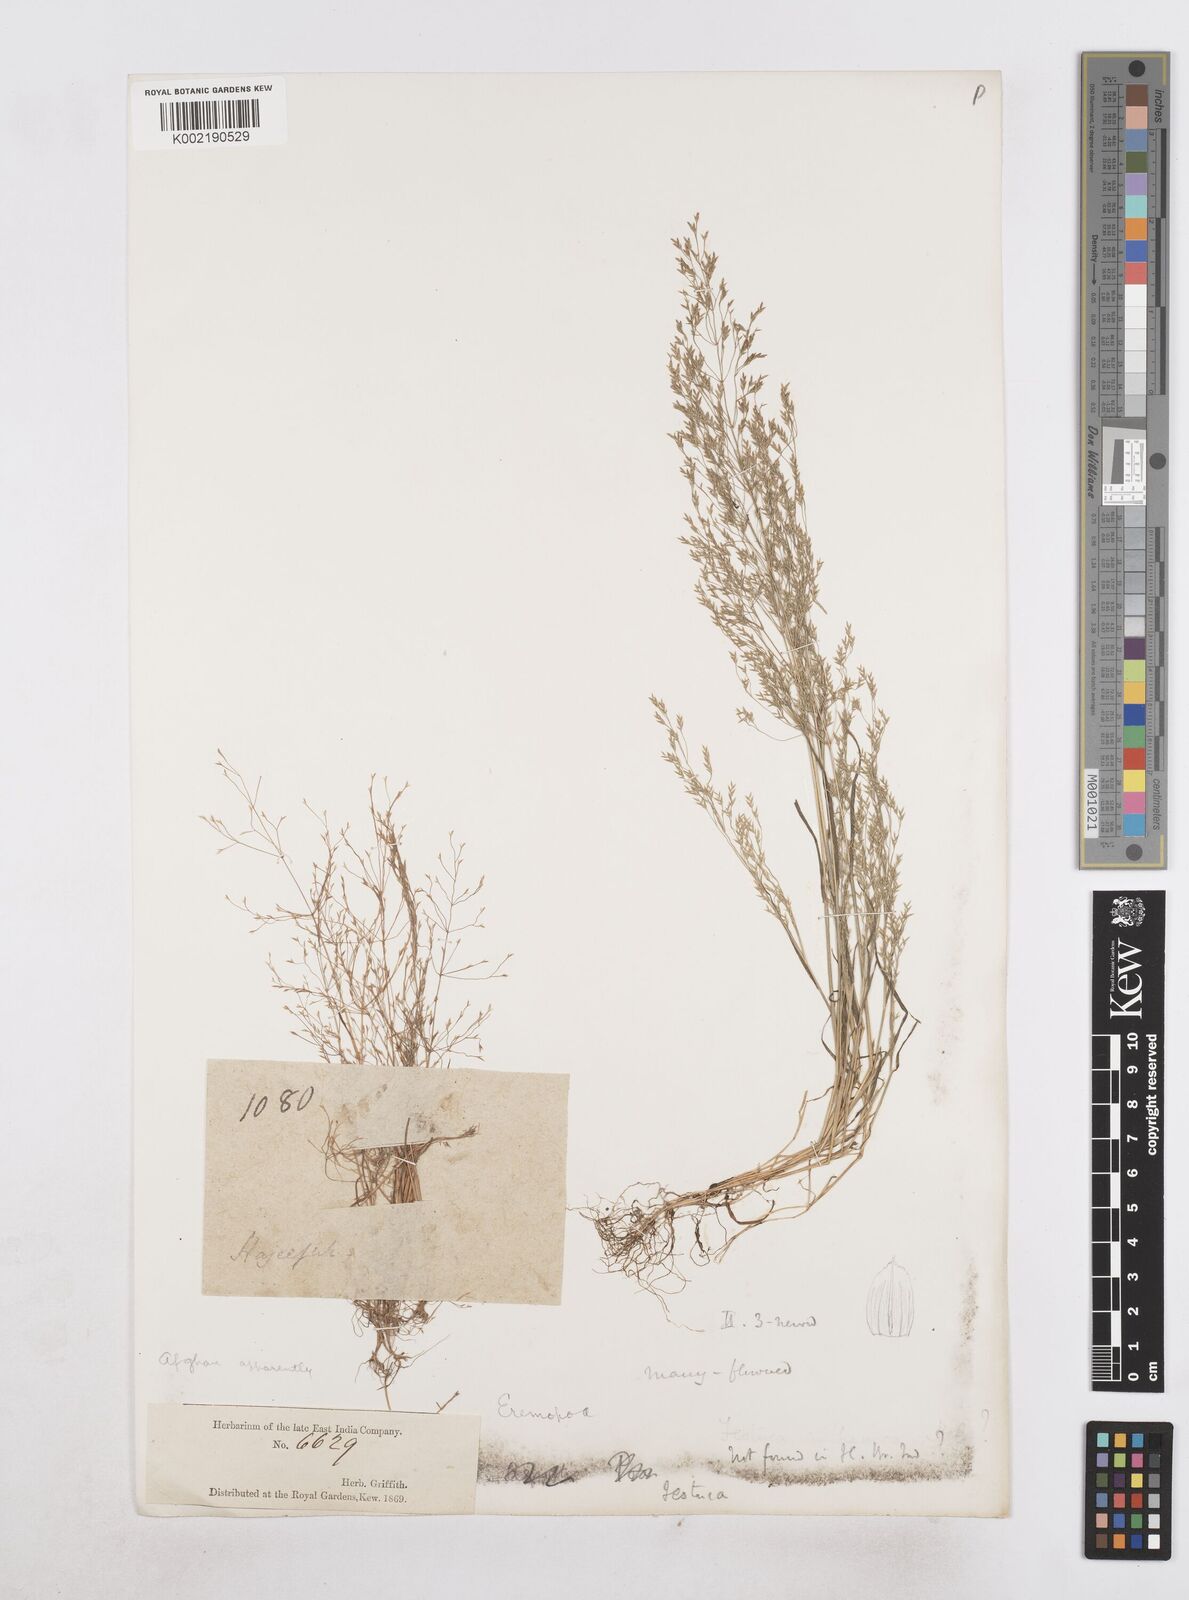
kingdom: Plantae
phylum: Tracheophyta
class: Liliopsida
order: Poales
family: Poaceae
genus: Poa
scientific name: Poa diaphora
